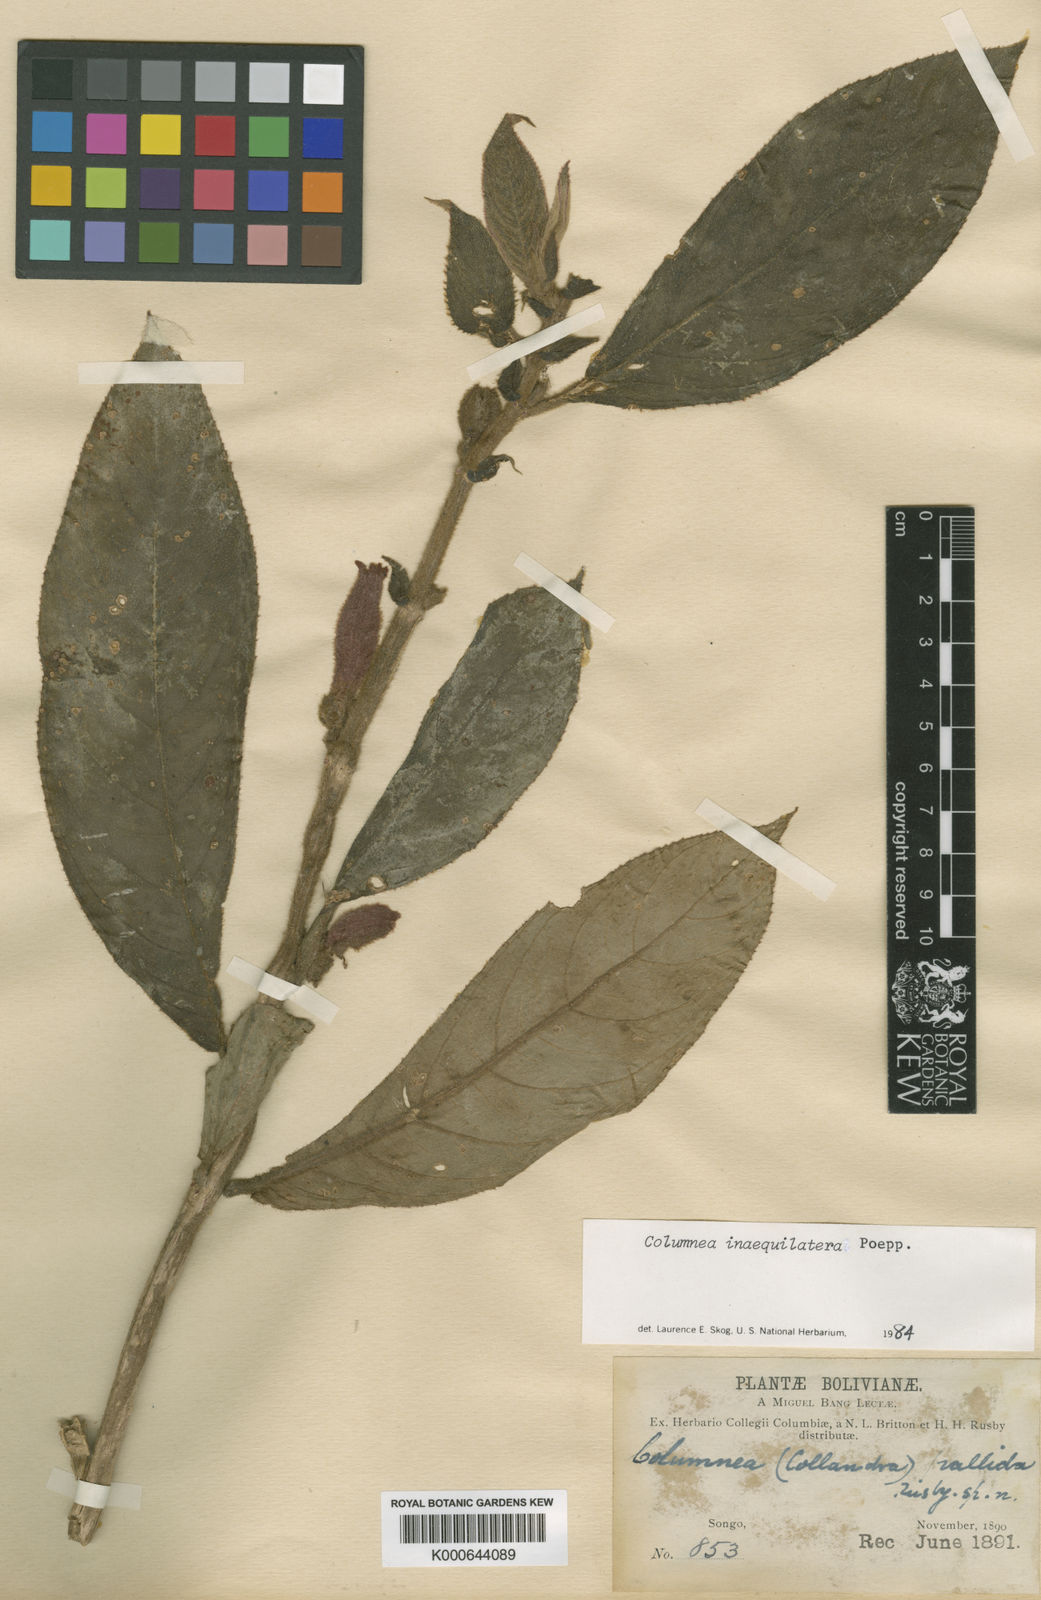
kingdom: Plantae
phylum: Tracheophyta
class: Magnoliopsida
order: Lamiales
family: Gesneriaceae
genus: Columnea
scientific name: Columnea sanguinea
